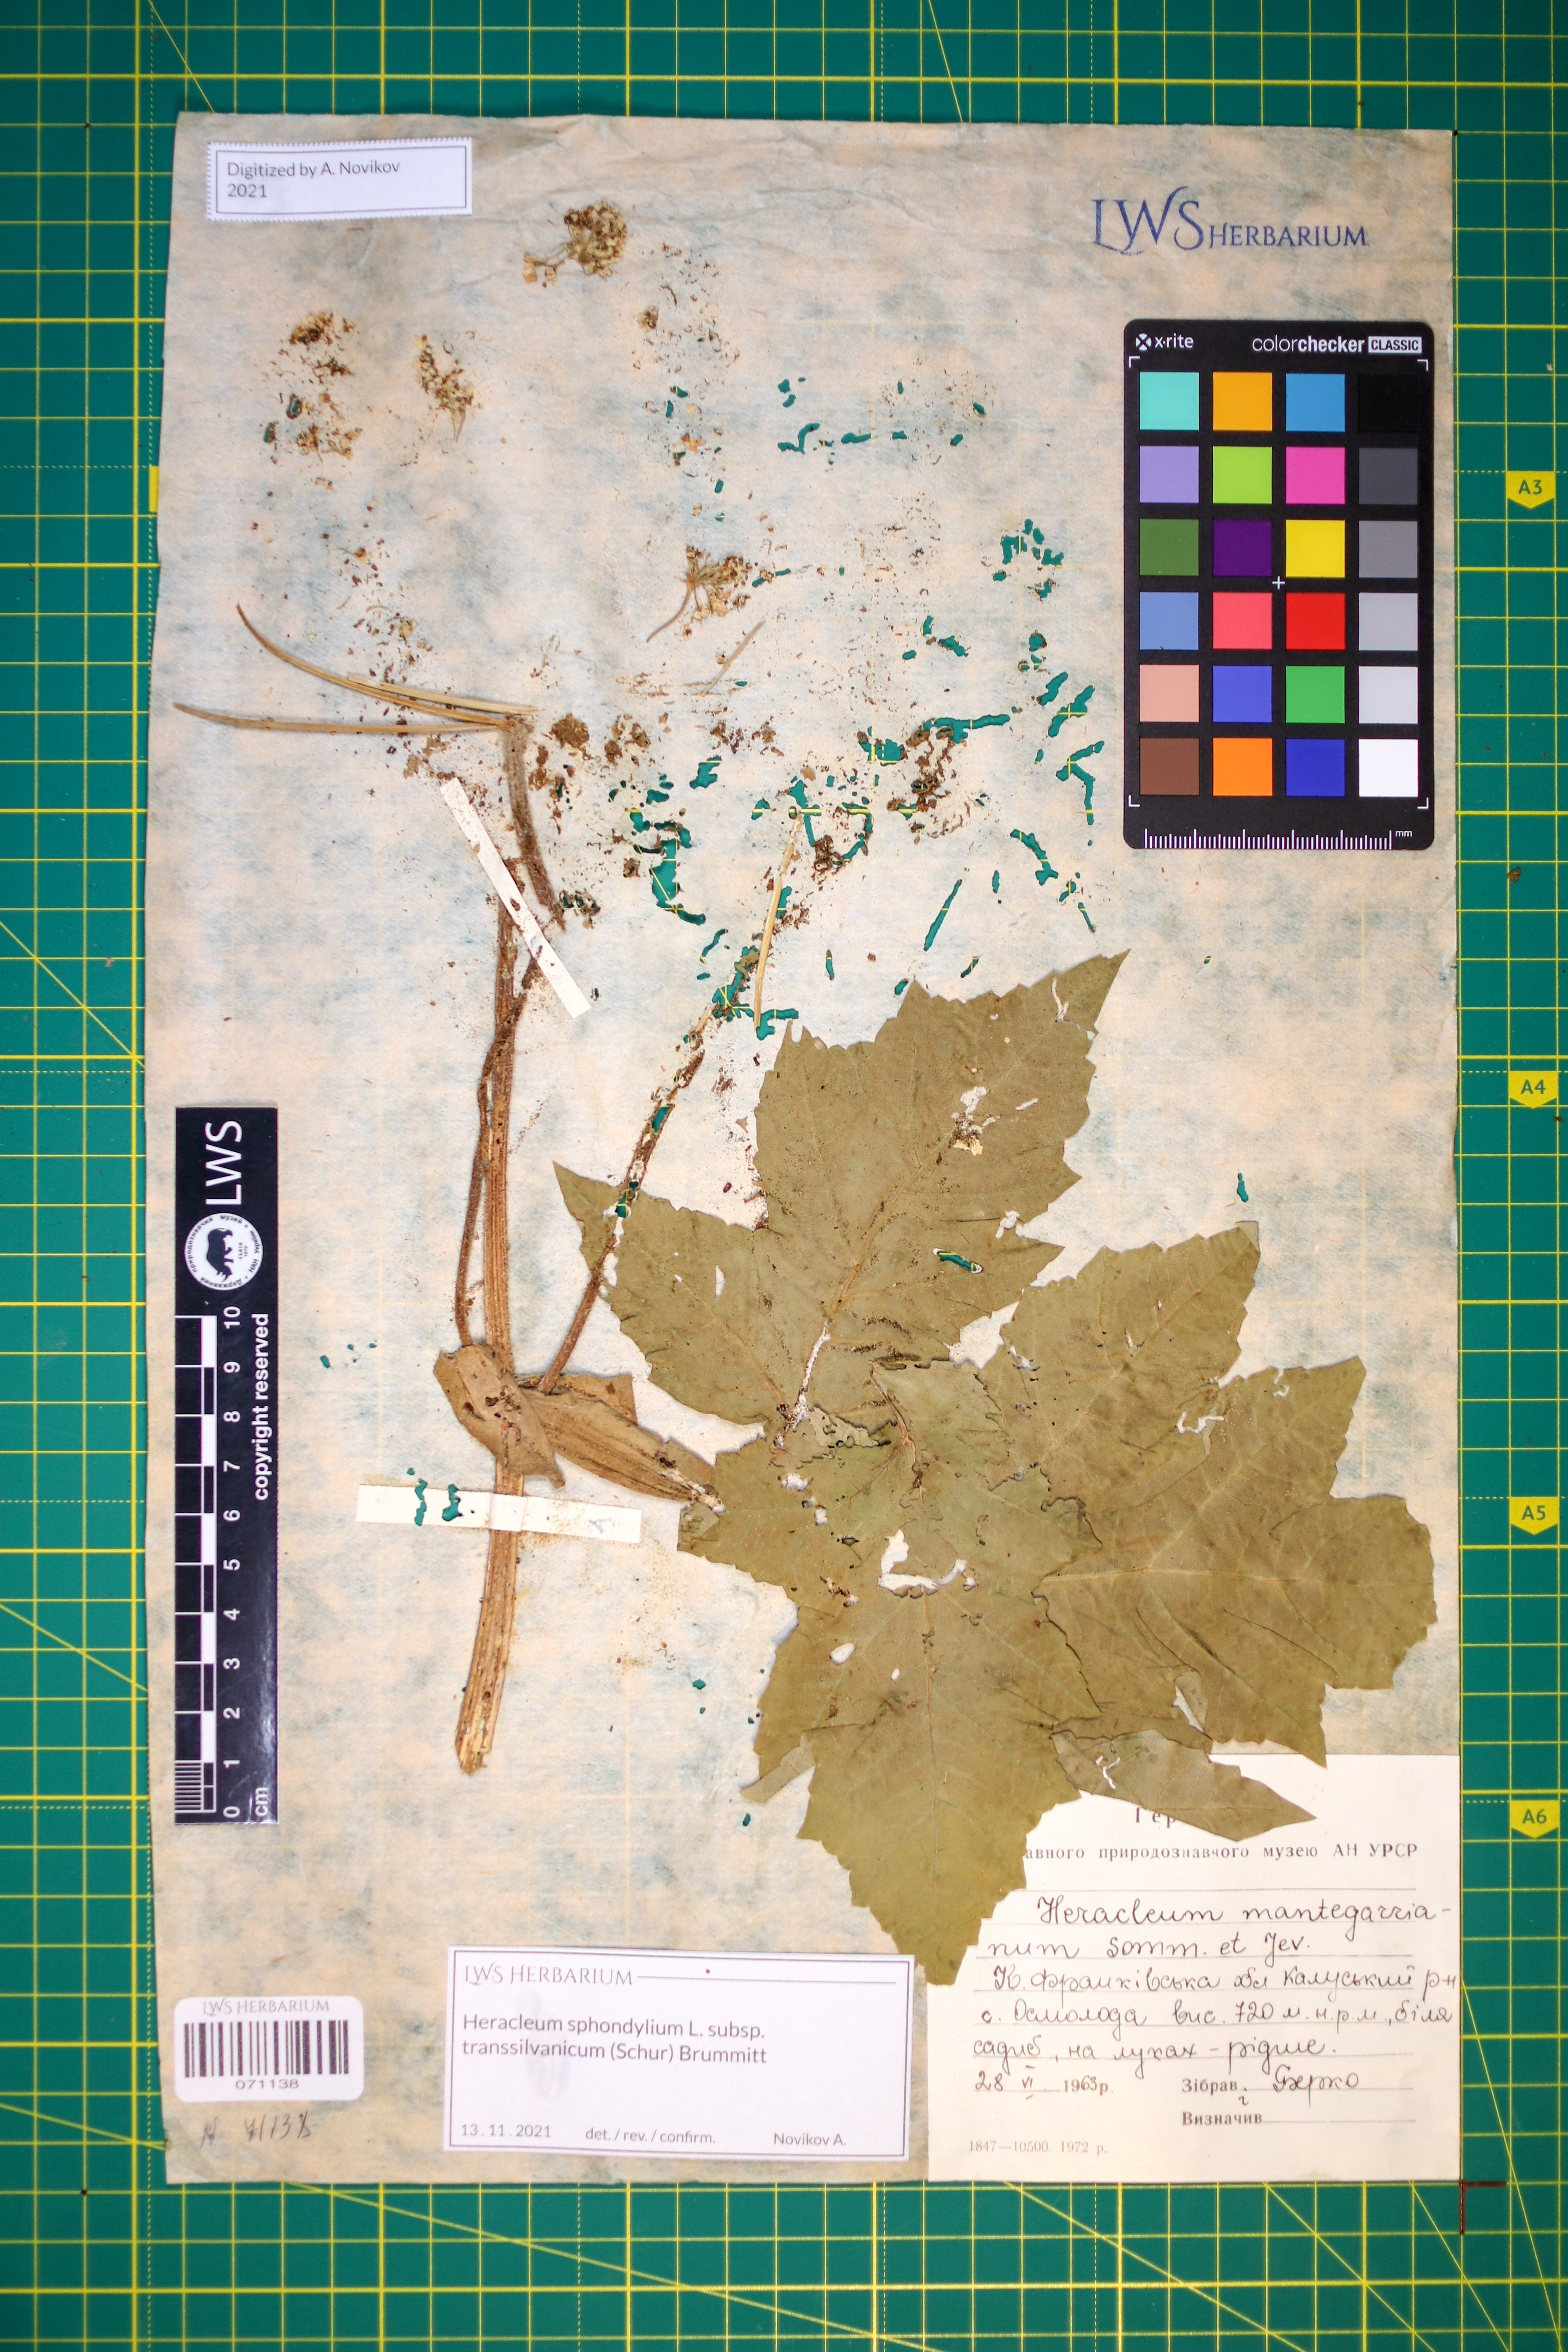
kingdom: Plantae
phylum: Tracheophyta
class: Magnoliopsida
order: Apiales
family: Apiaceae
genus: Heracleum
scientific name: Heracleum sphondylium
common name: Hogweed
